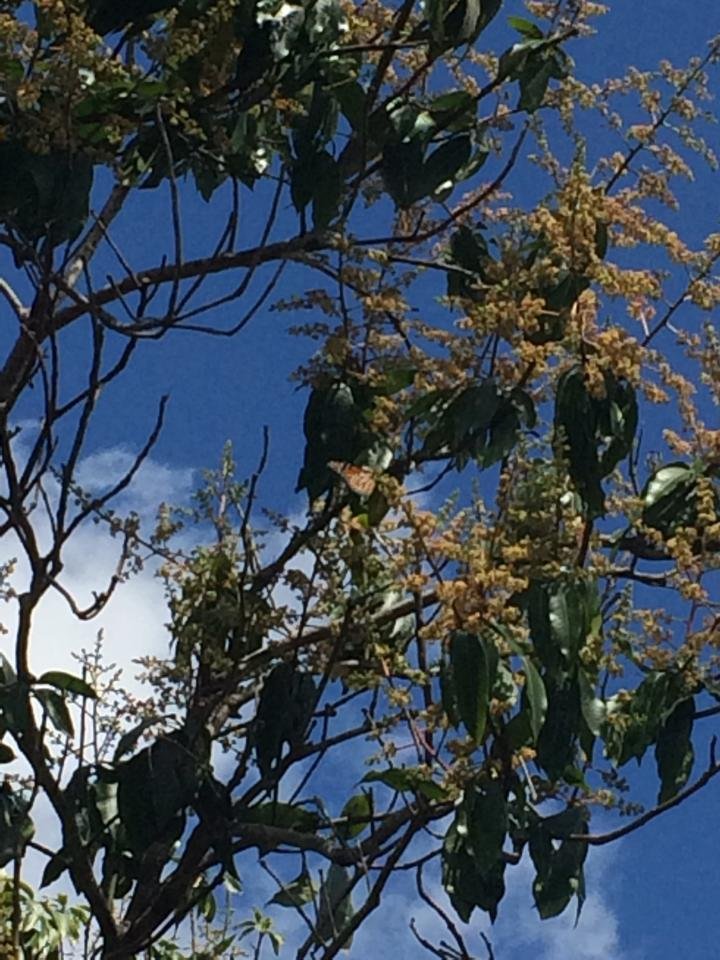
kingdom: Animalia
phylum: Arthropoda
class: Insecta
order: Lepidoptera
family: Nymphalidae
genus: Danaus
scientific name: Danaus plexippus
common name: Monarch
